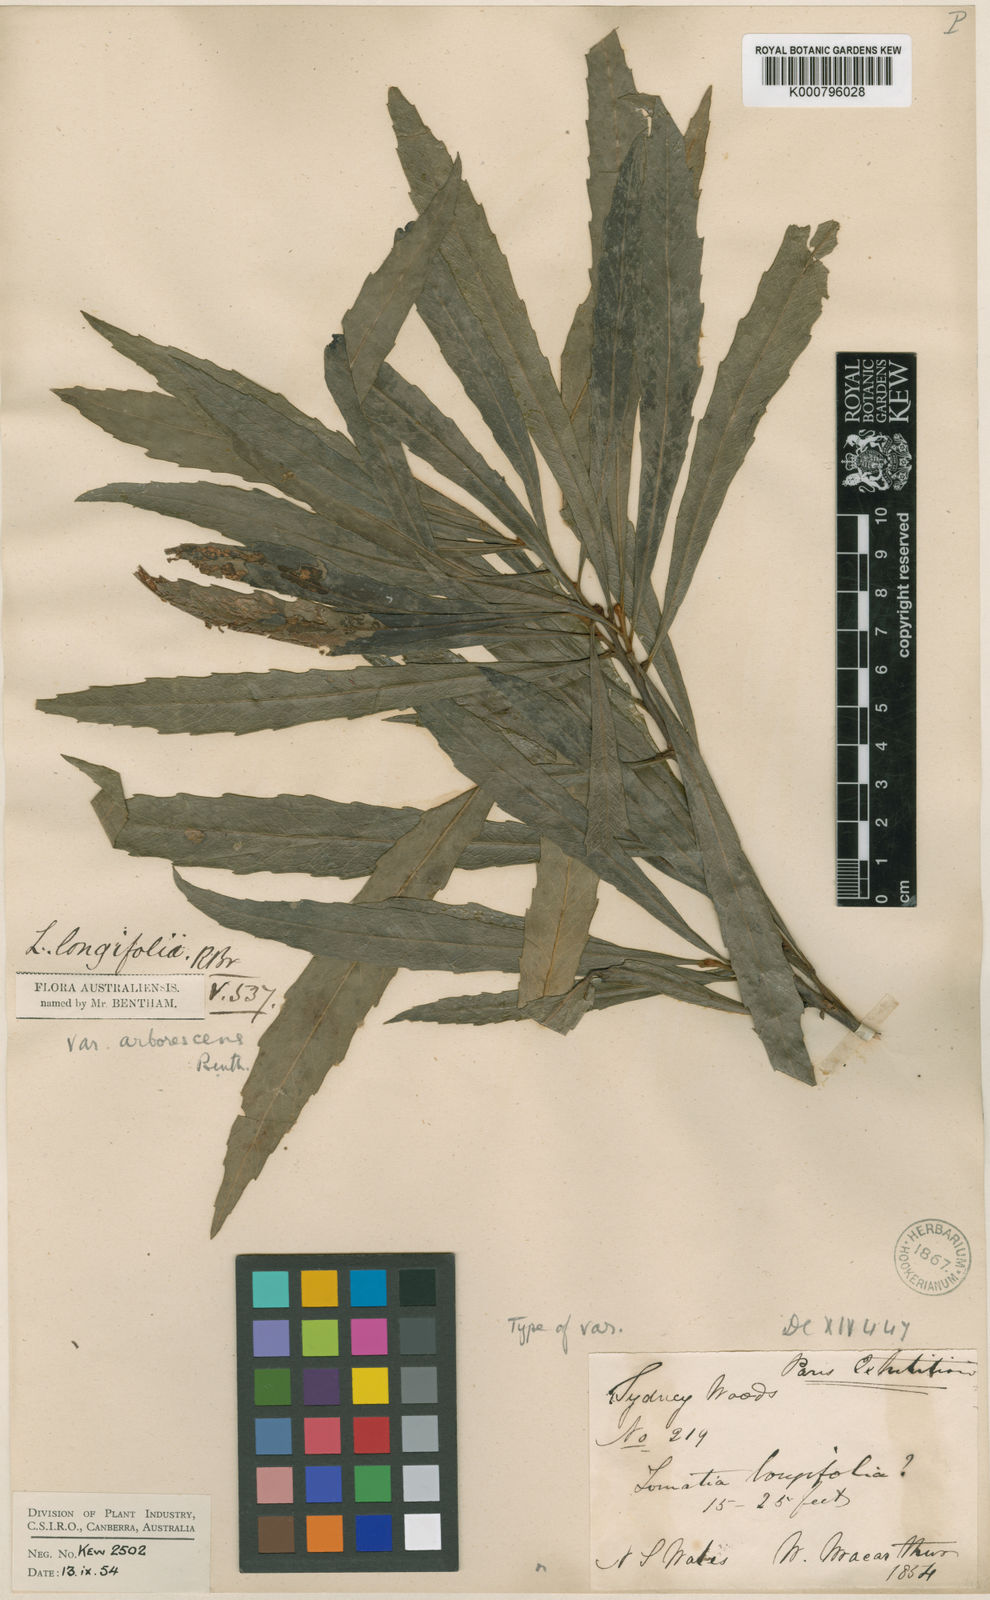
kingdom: Plantae
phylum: Tracheophyta
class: Magnoliopsida
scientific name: Magnoliopsida
